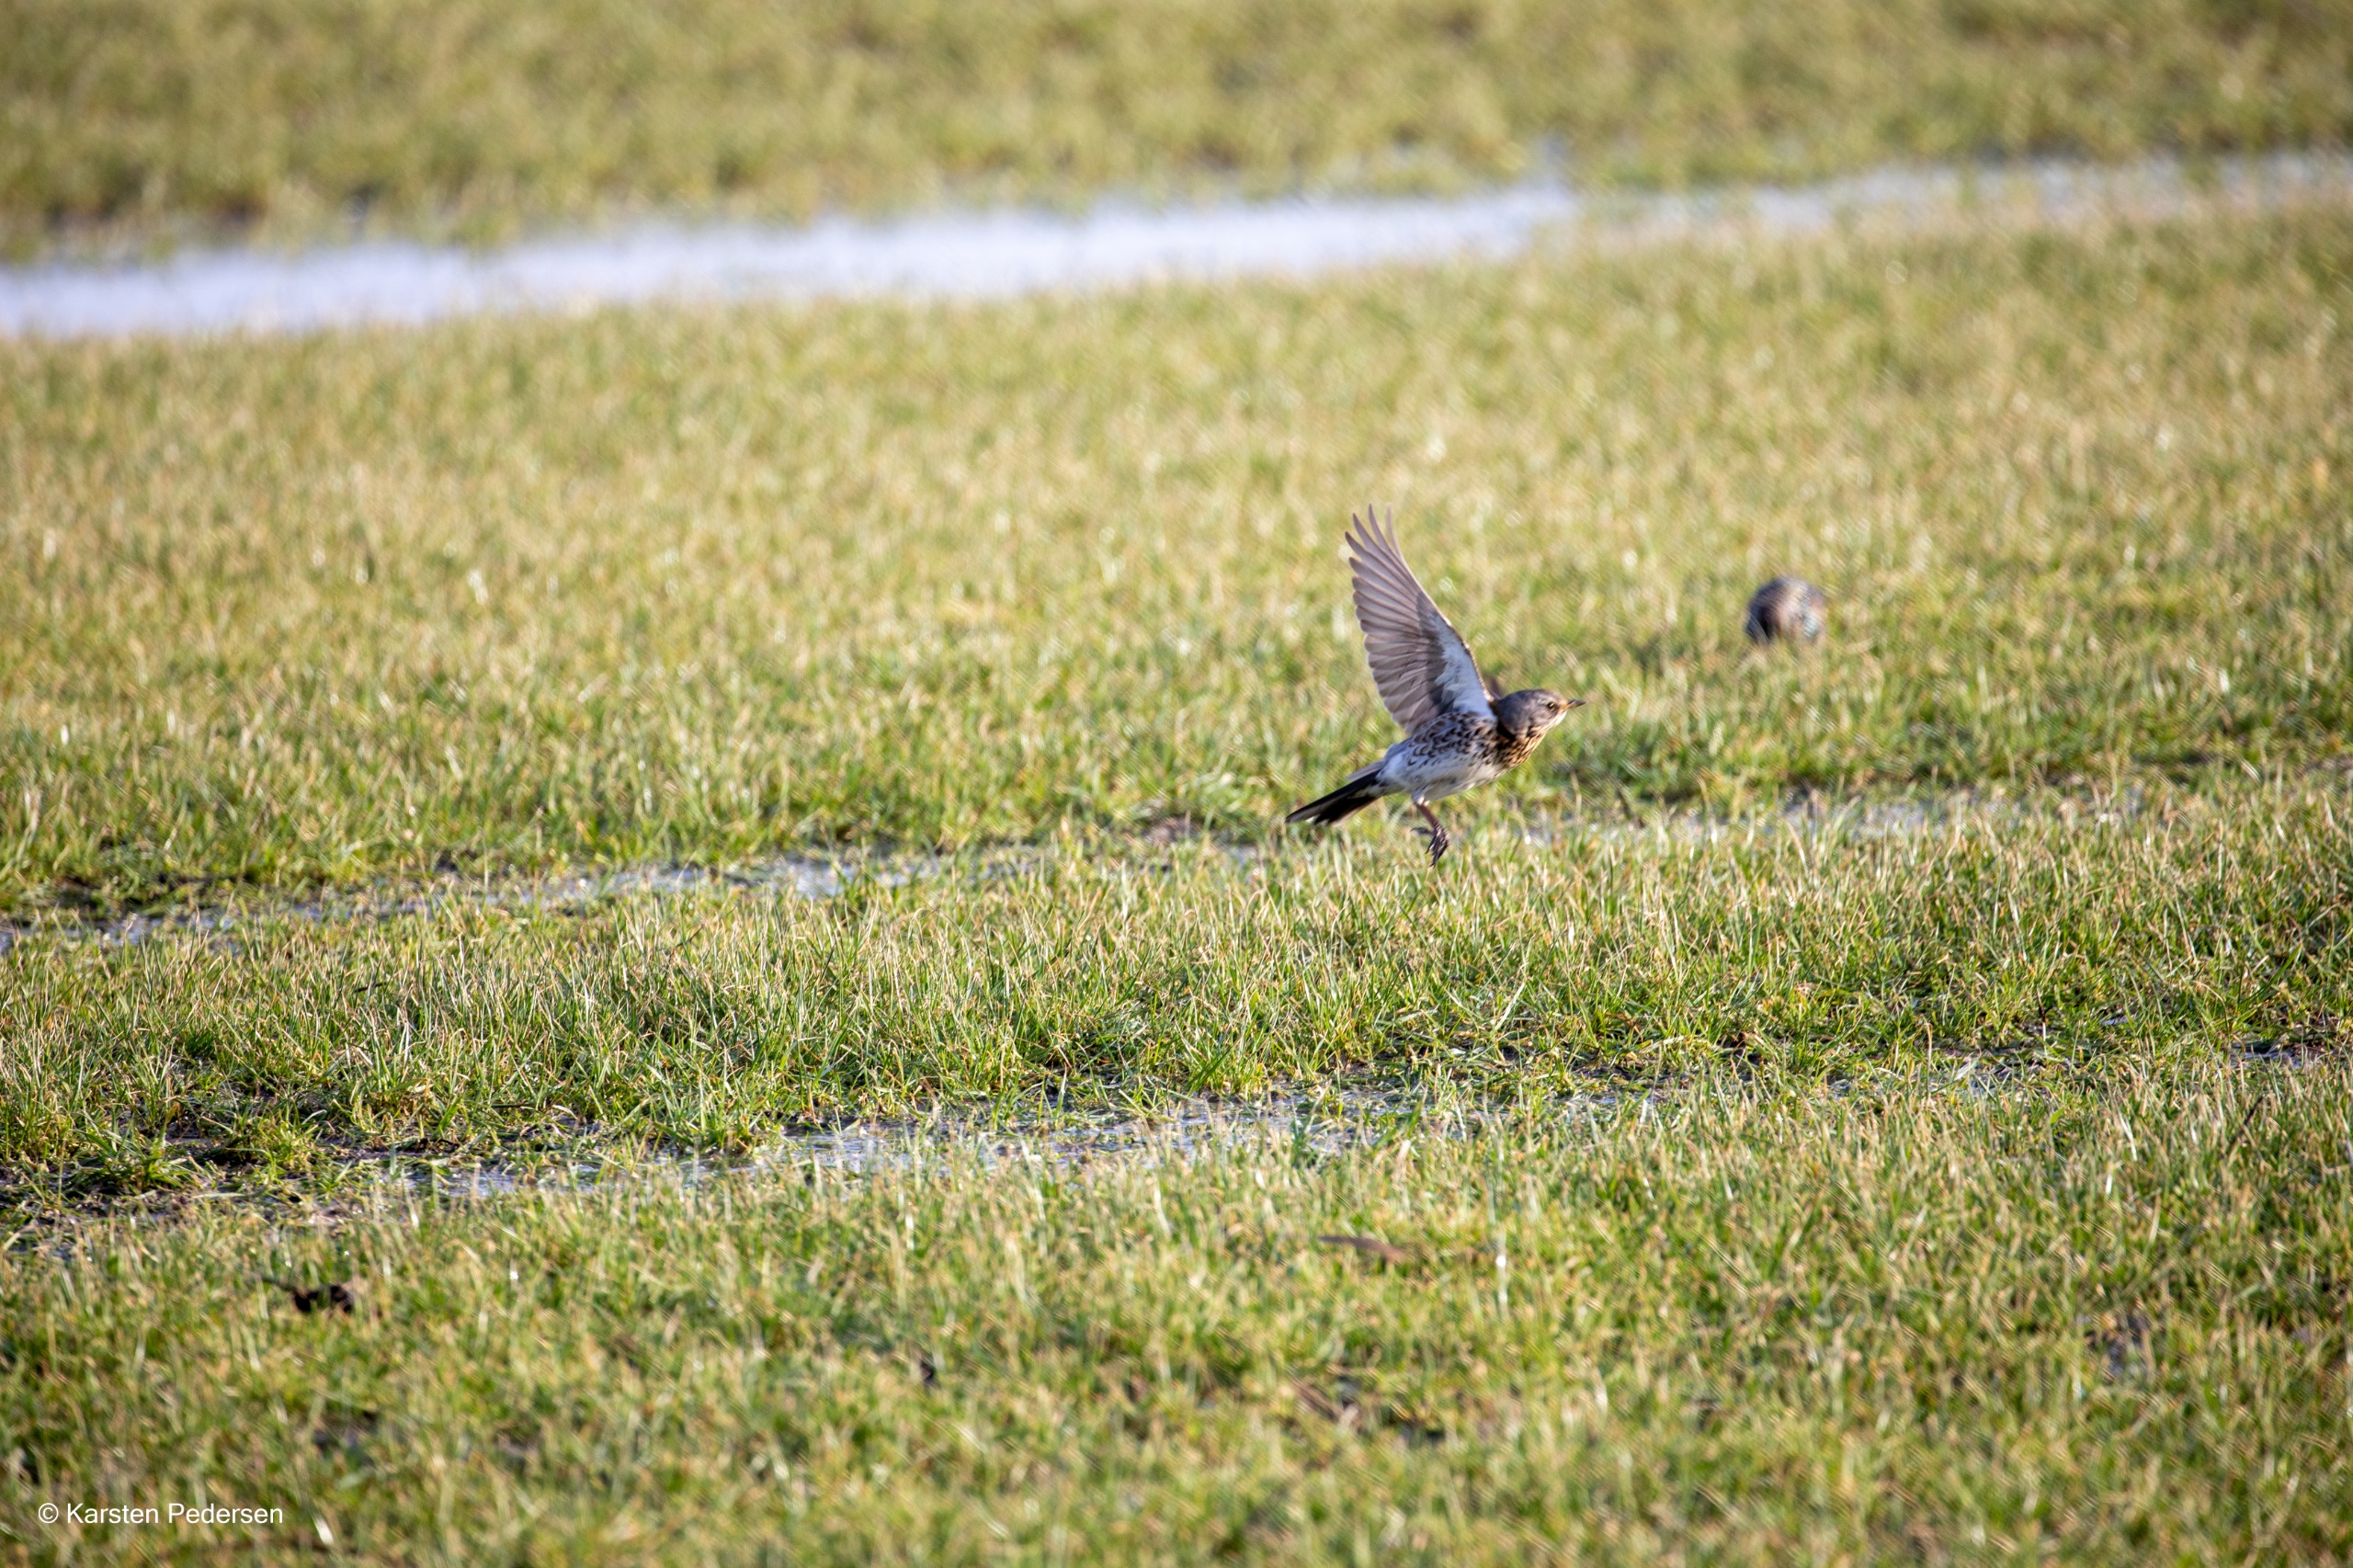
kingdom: Animalia
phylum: Chordata
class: Aves
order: Passeriformes
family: Turdidae
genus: Turdus
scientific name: Turdus pilaris
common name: Sjagger
